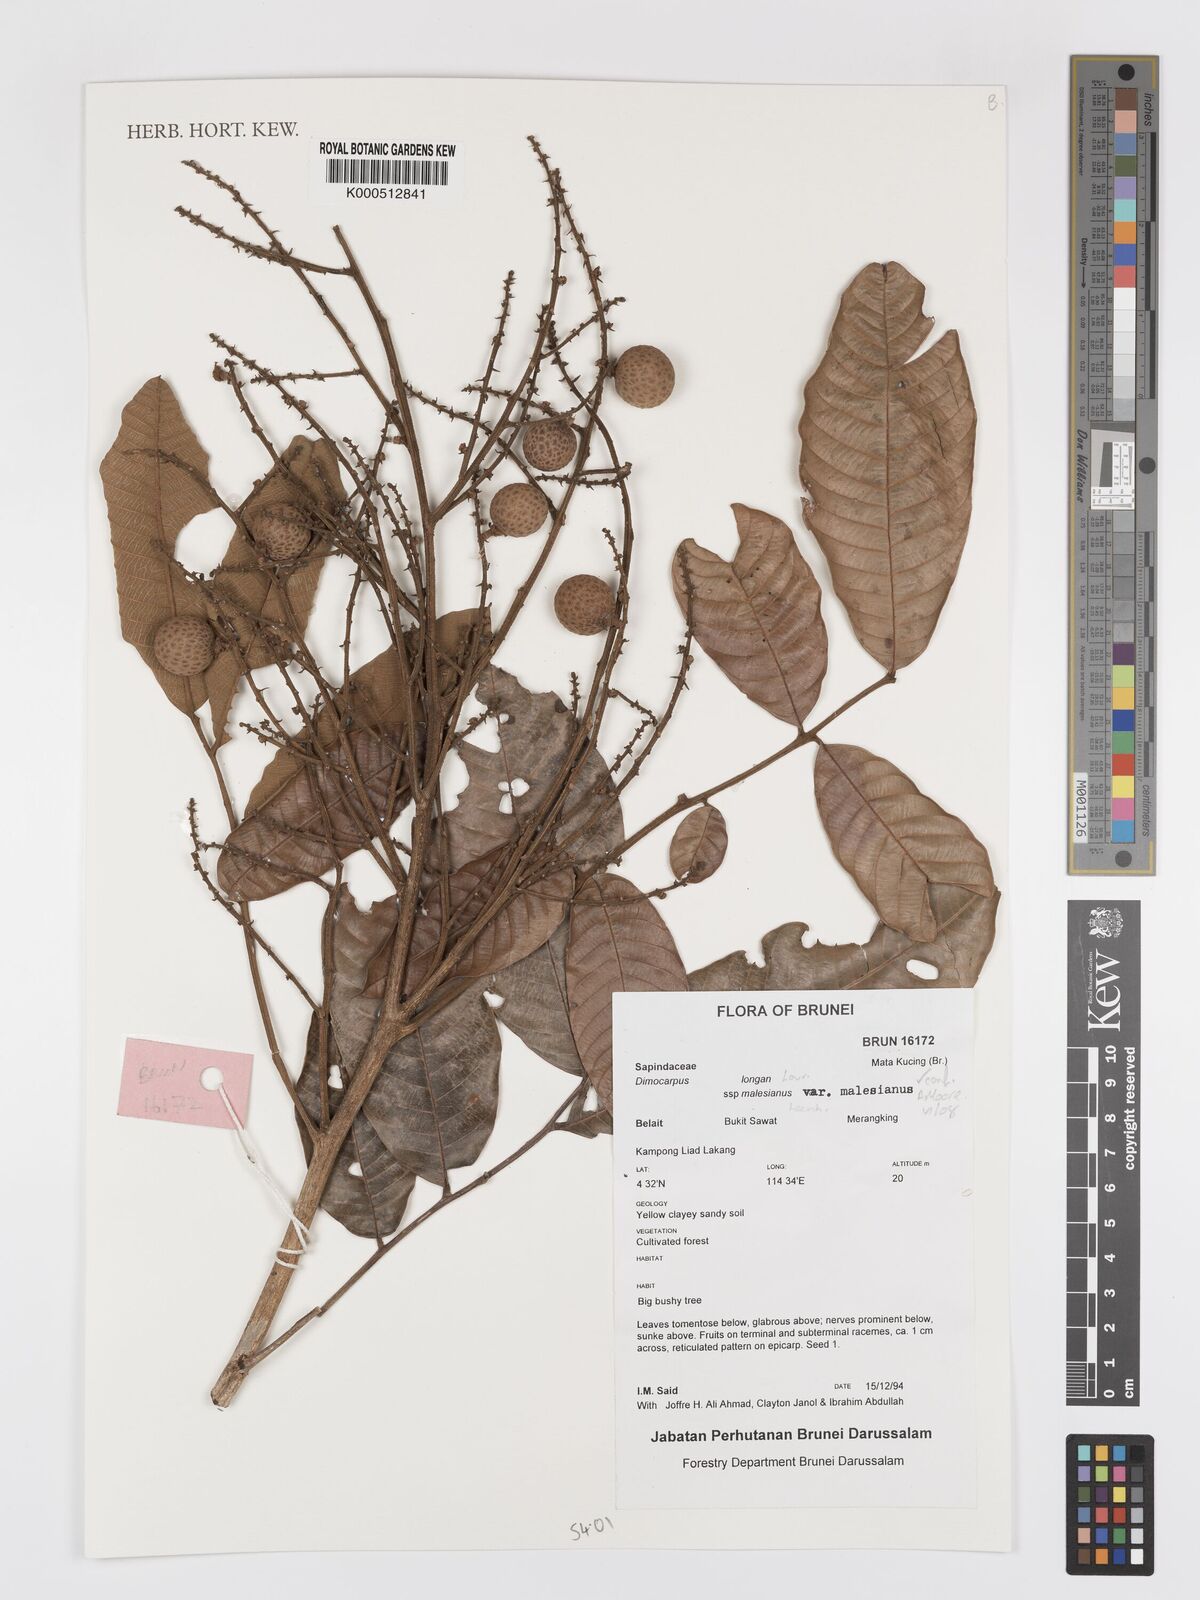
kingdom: Plantae
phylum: Tracheophyta
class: Magnoliopsida
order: Sapindales
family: Sapindaceae
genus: Dimocarpus
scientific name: Dimocarpus malesianus
